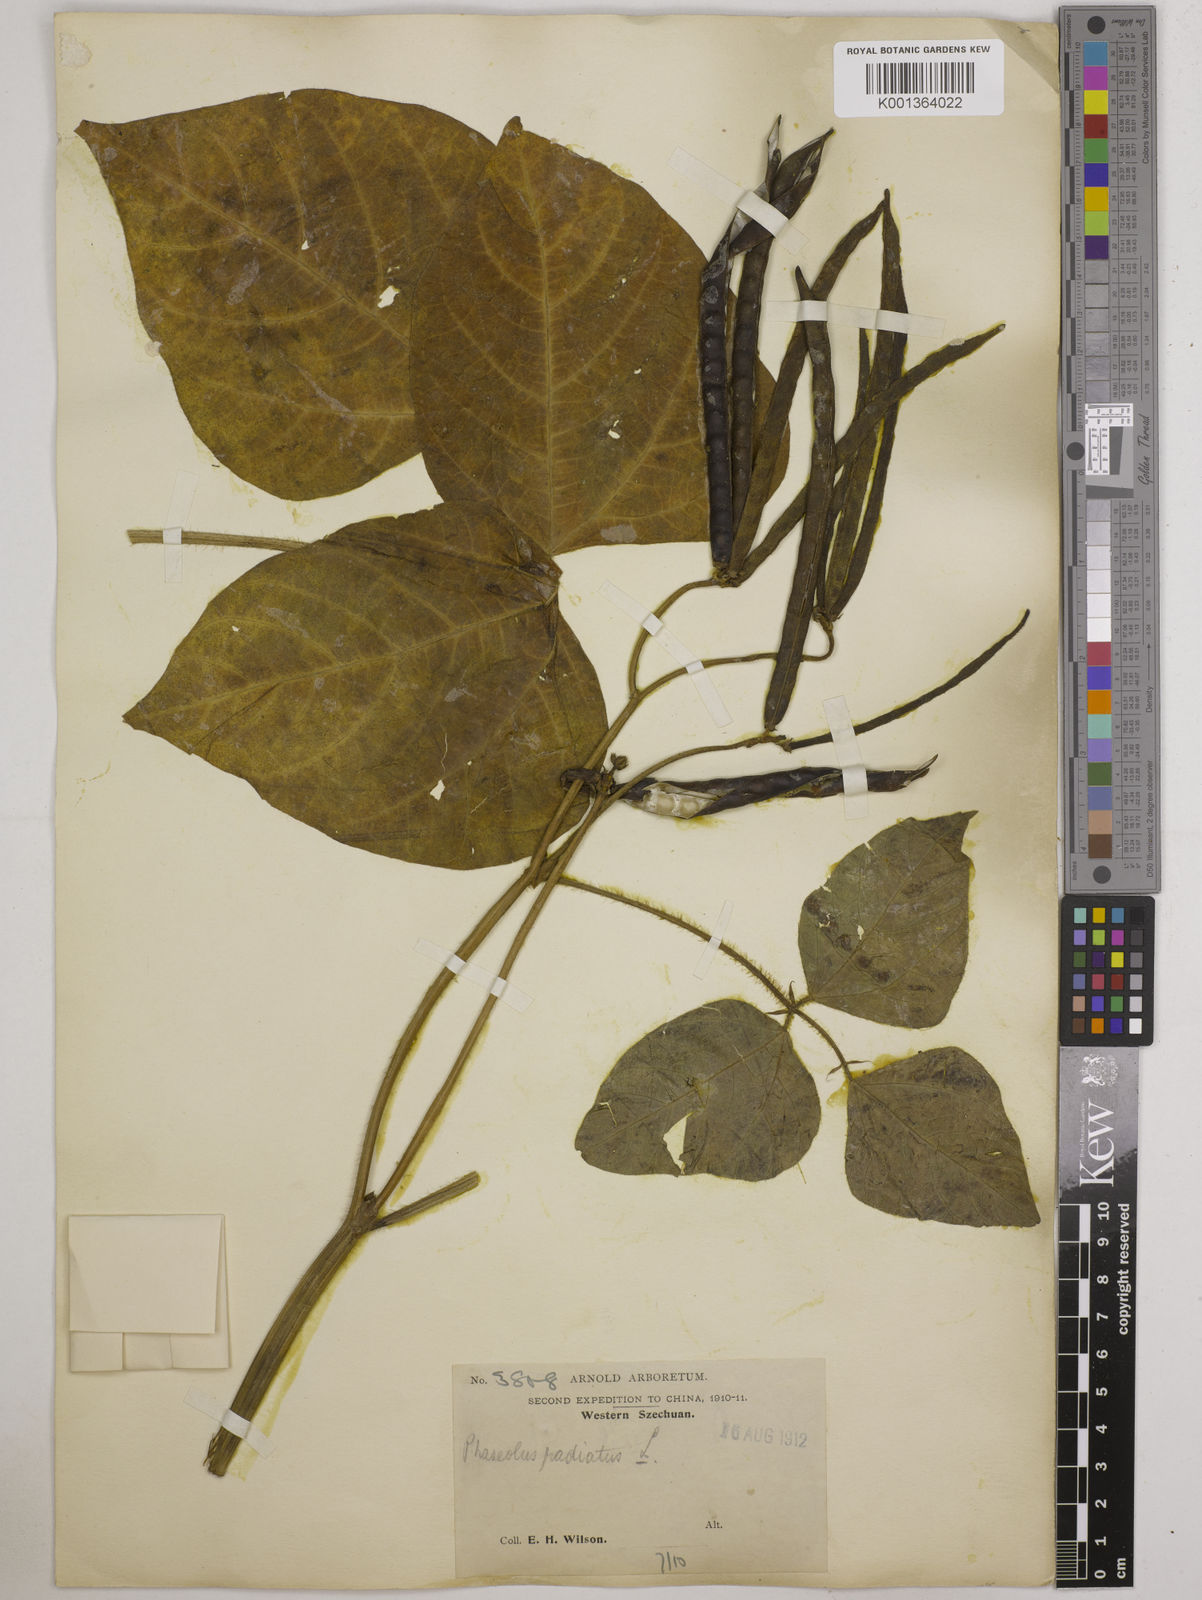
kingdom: Plantae
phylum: Tracheophyta
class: Magnoliopsida
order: Fabales
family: Fabaceae
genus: Vigna
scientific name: Vigna radiata
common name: Mung-bean
